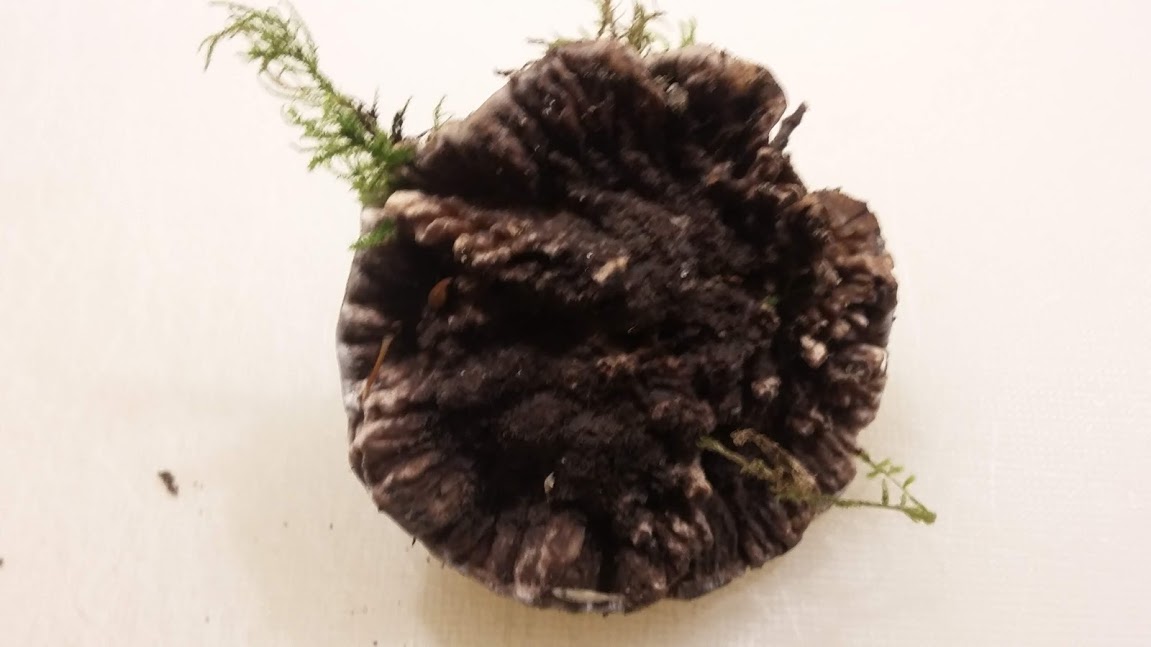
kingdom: Fungi
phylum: Basidiomycota
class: Agaricomycetes
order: Thelephorales
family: Thelephoraceae
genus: Phellodon
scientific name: Phellodon confluens
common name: pjaltet duftpigsvamp
